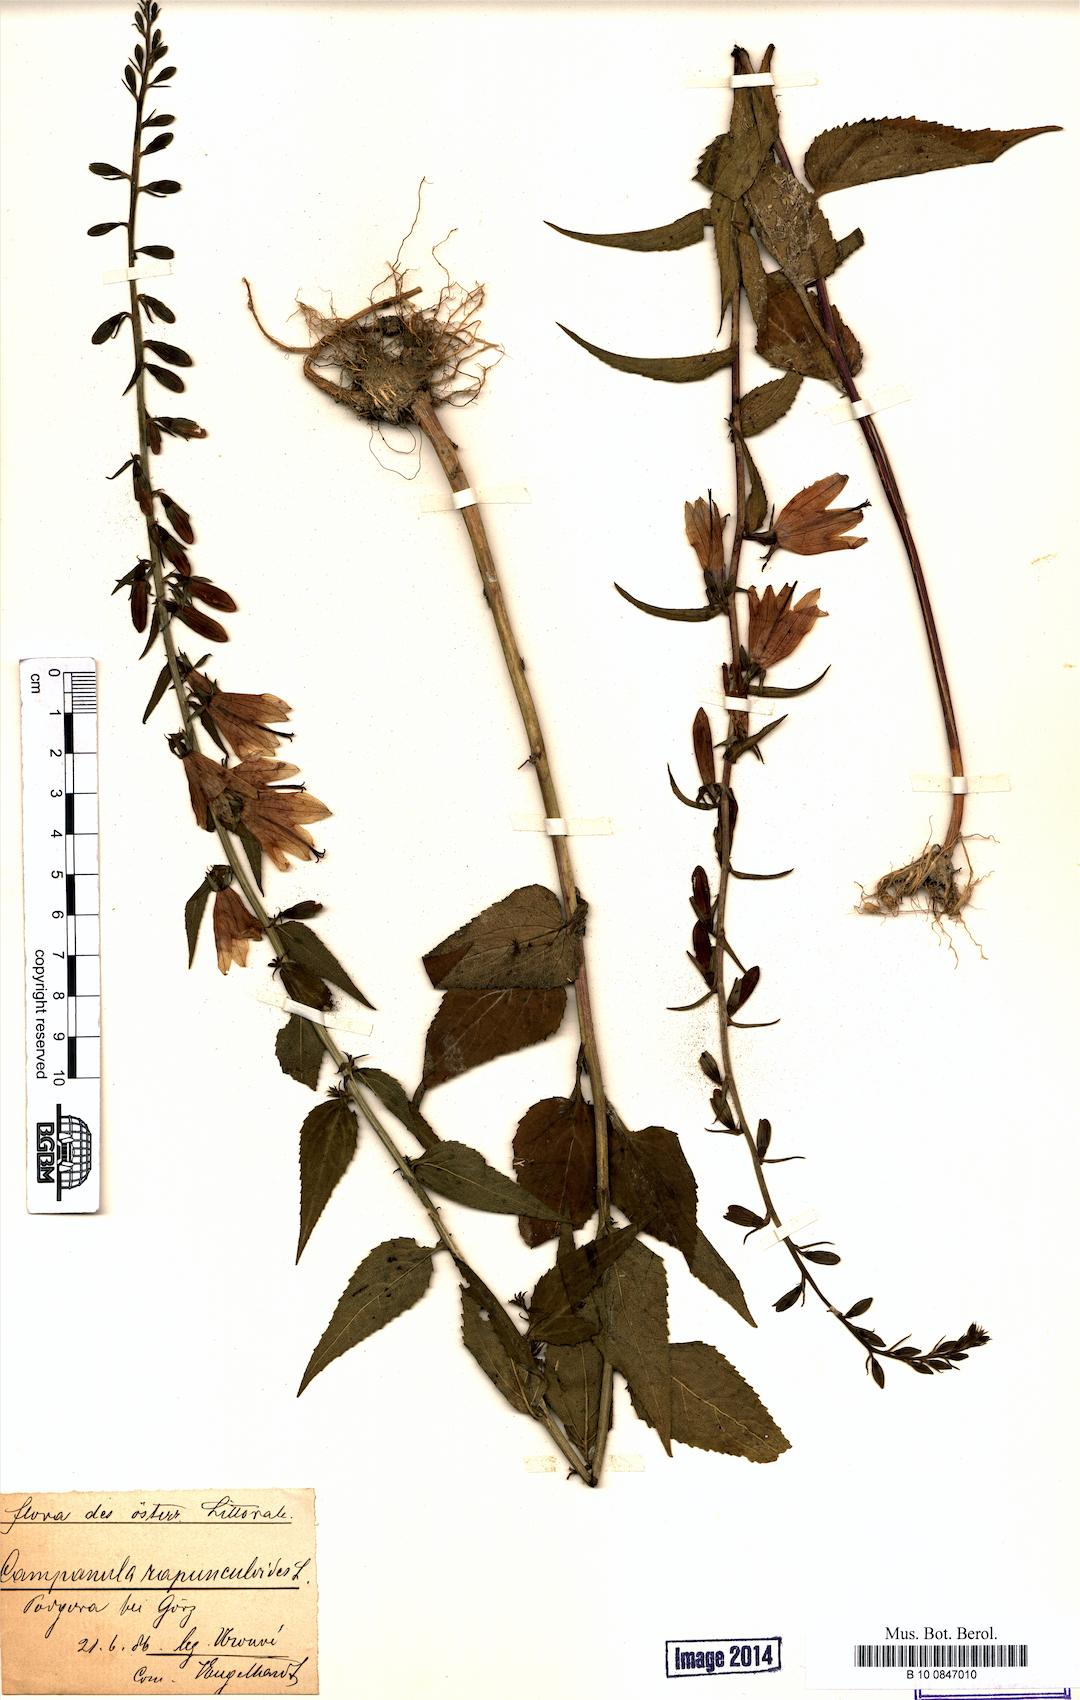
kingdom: Plantae
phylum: Tracheophyta
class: Magnoliopsida
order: Asterales
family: Campanulaceae
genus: Campanula
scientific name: Campanula rapunculoides
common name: Creeping bellflower
